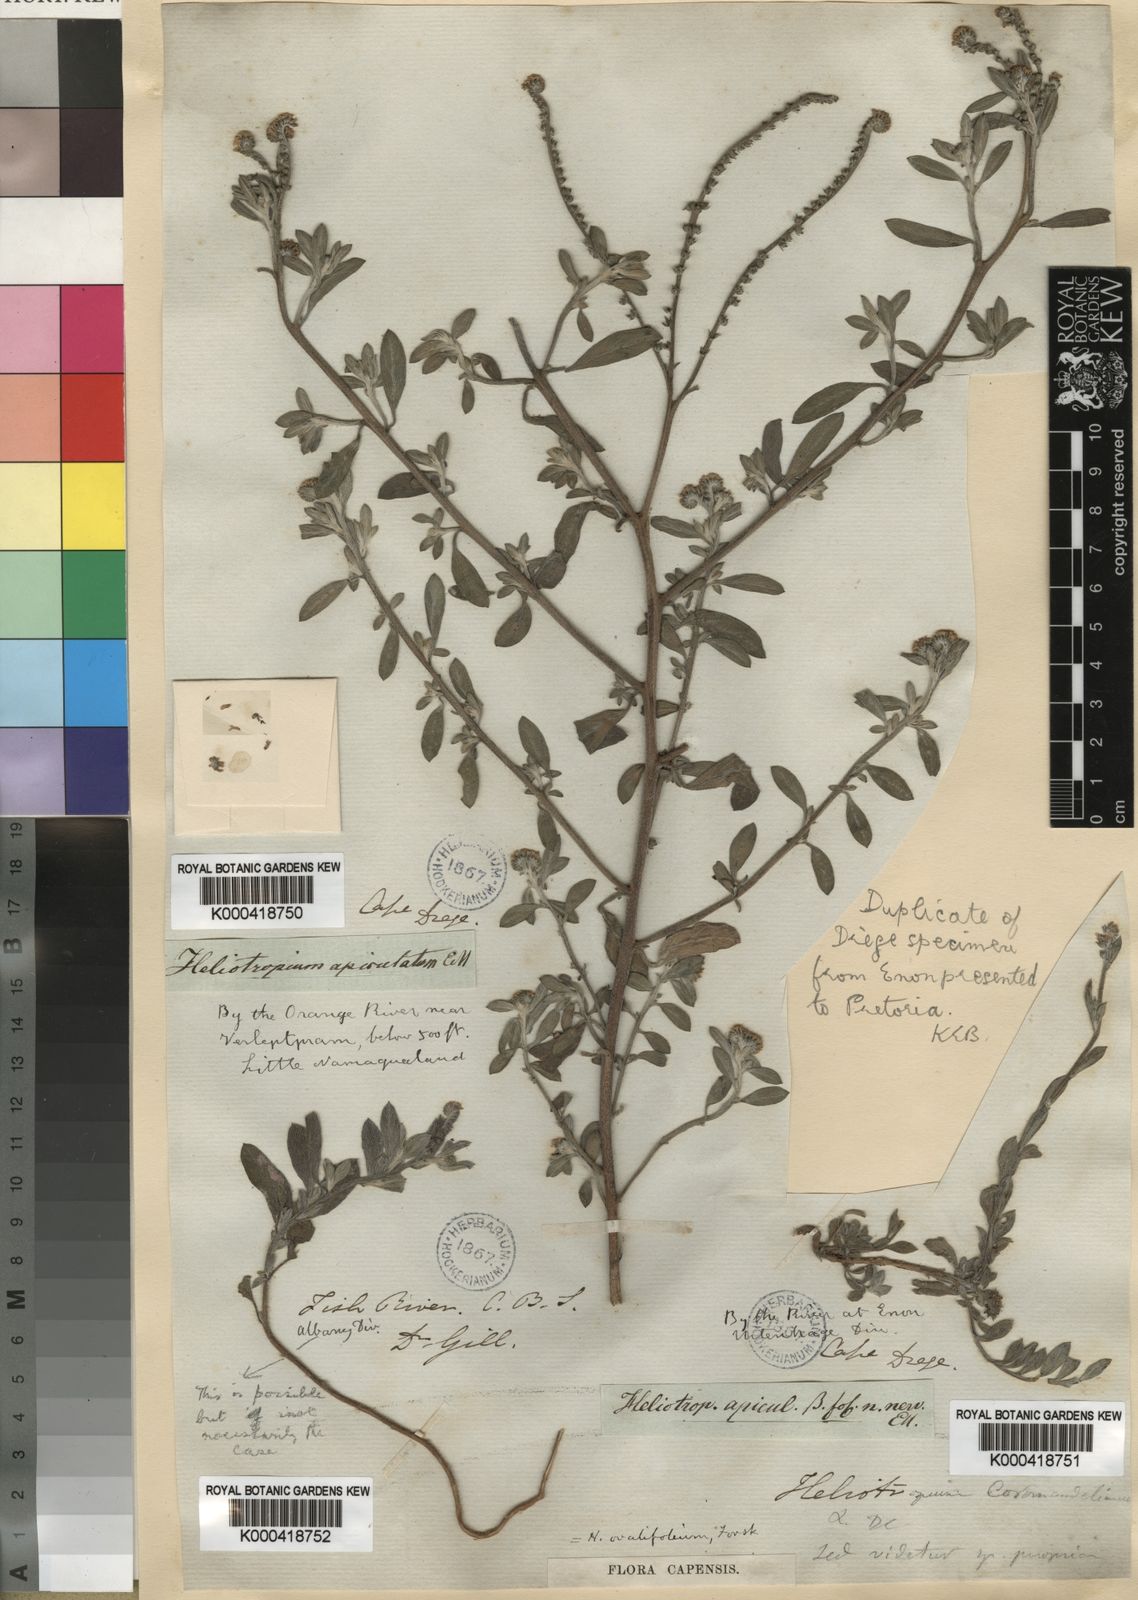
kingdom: Plantae
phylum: Tracheophyta
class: Magnoliopsida
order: Boraginales
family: Heliotropiaceae
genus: Euploca
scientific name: Euploca ovalifolia
